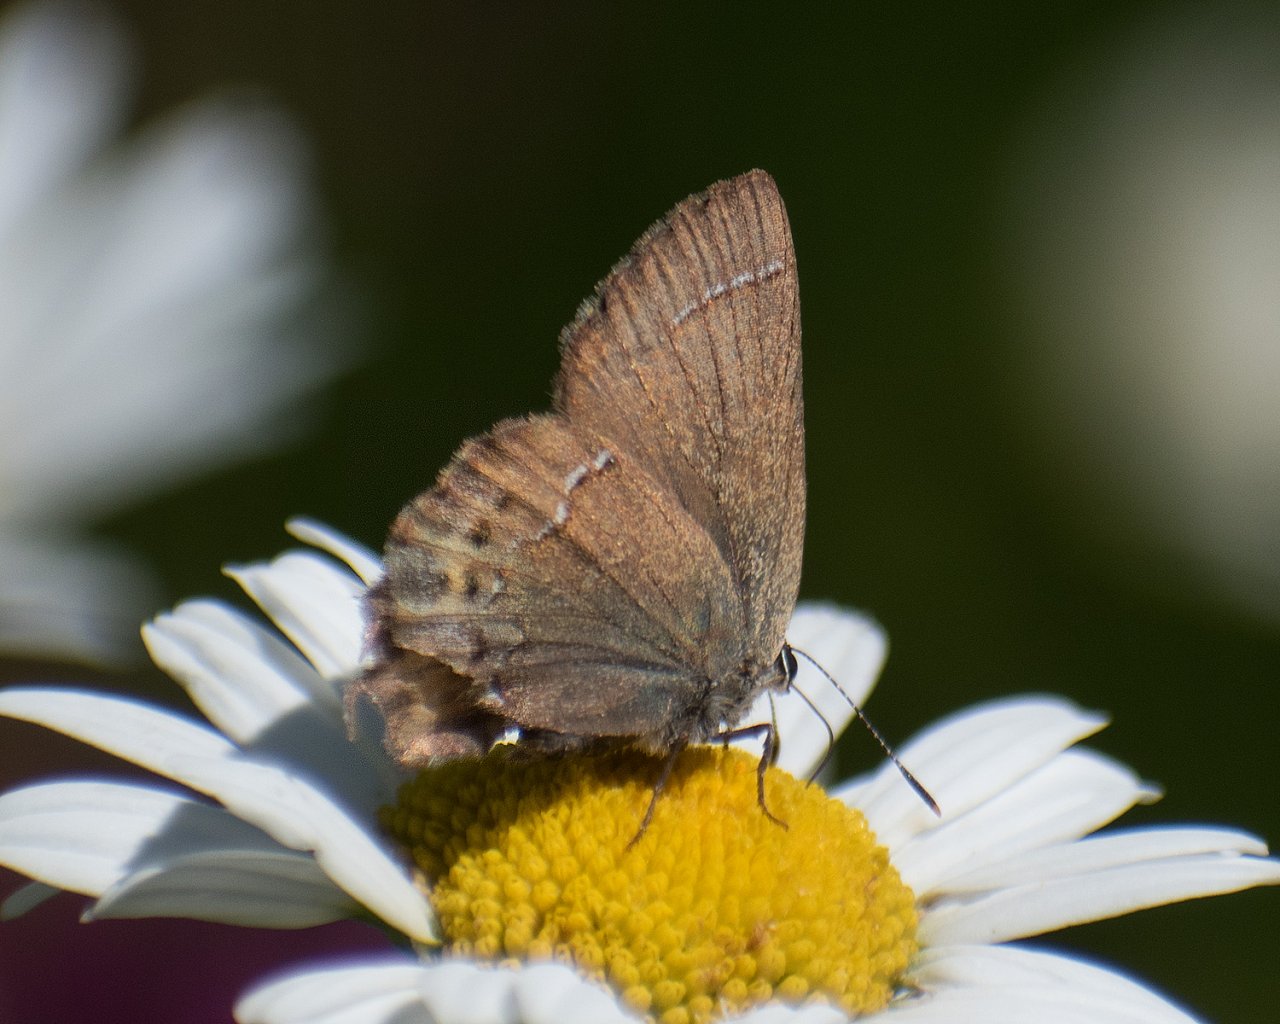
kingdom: Animalia
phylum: Arthropoda
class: Insecta
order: Lepidoptera
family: Lycaenidae
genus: Mitoura
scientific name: Mitoura nelsoni
